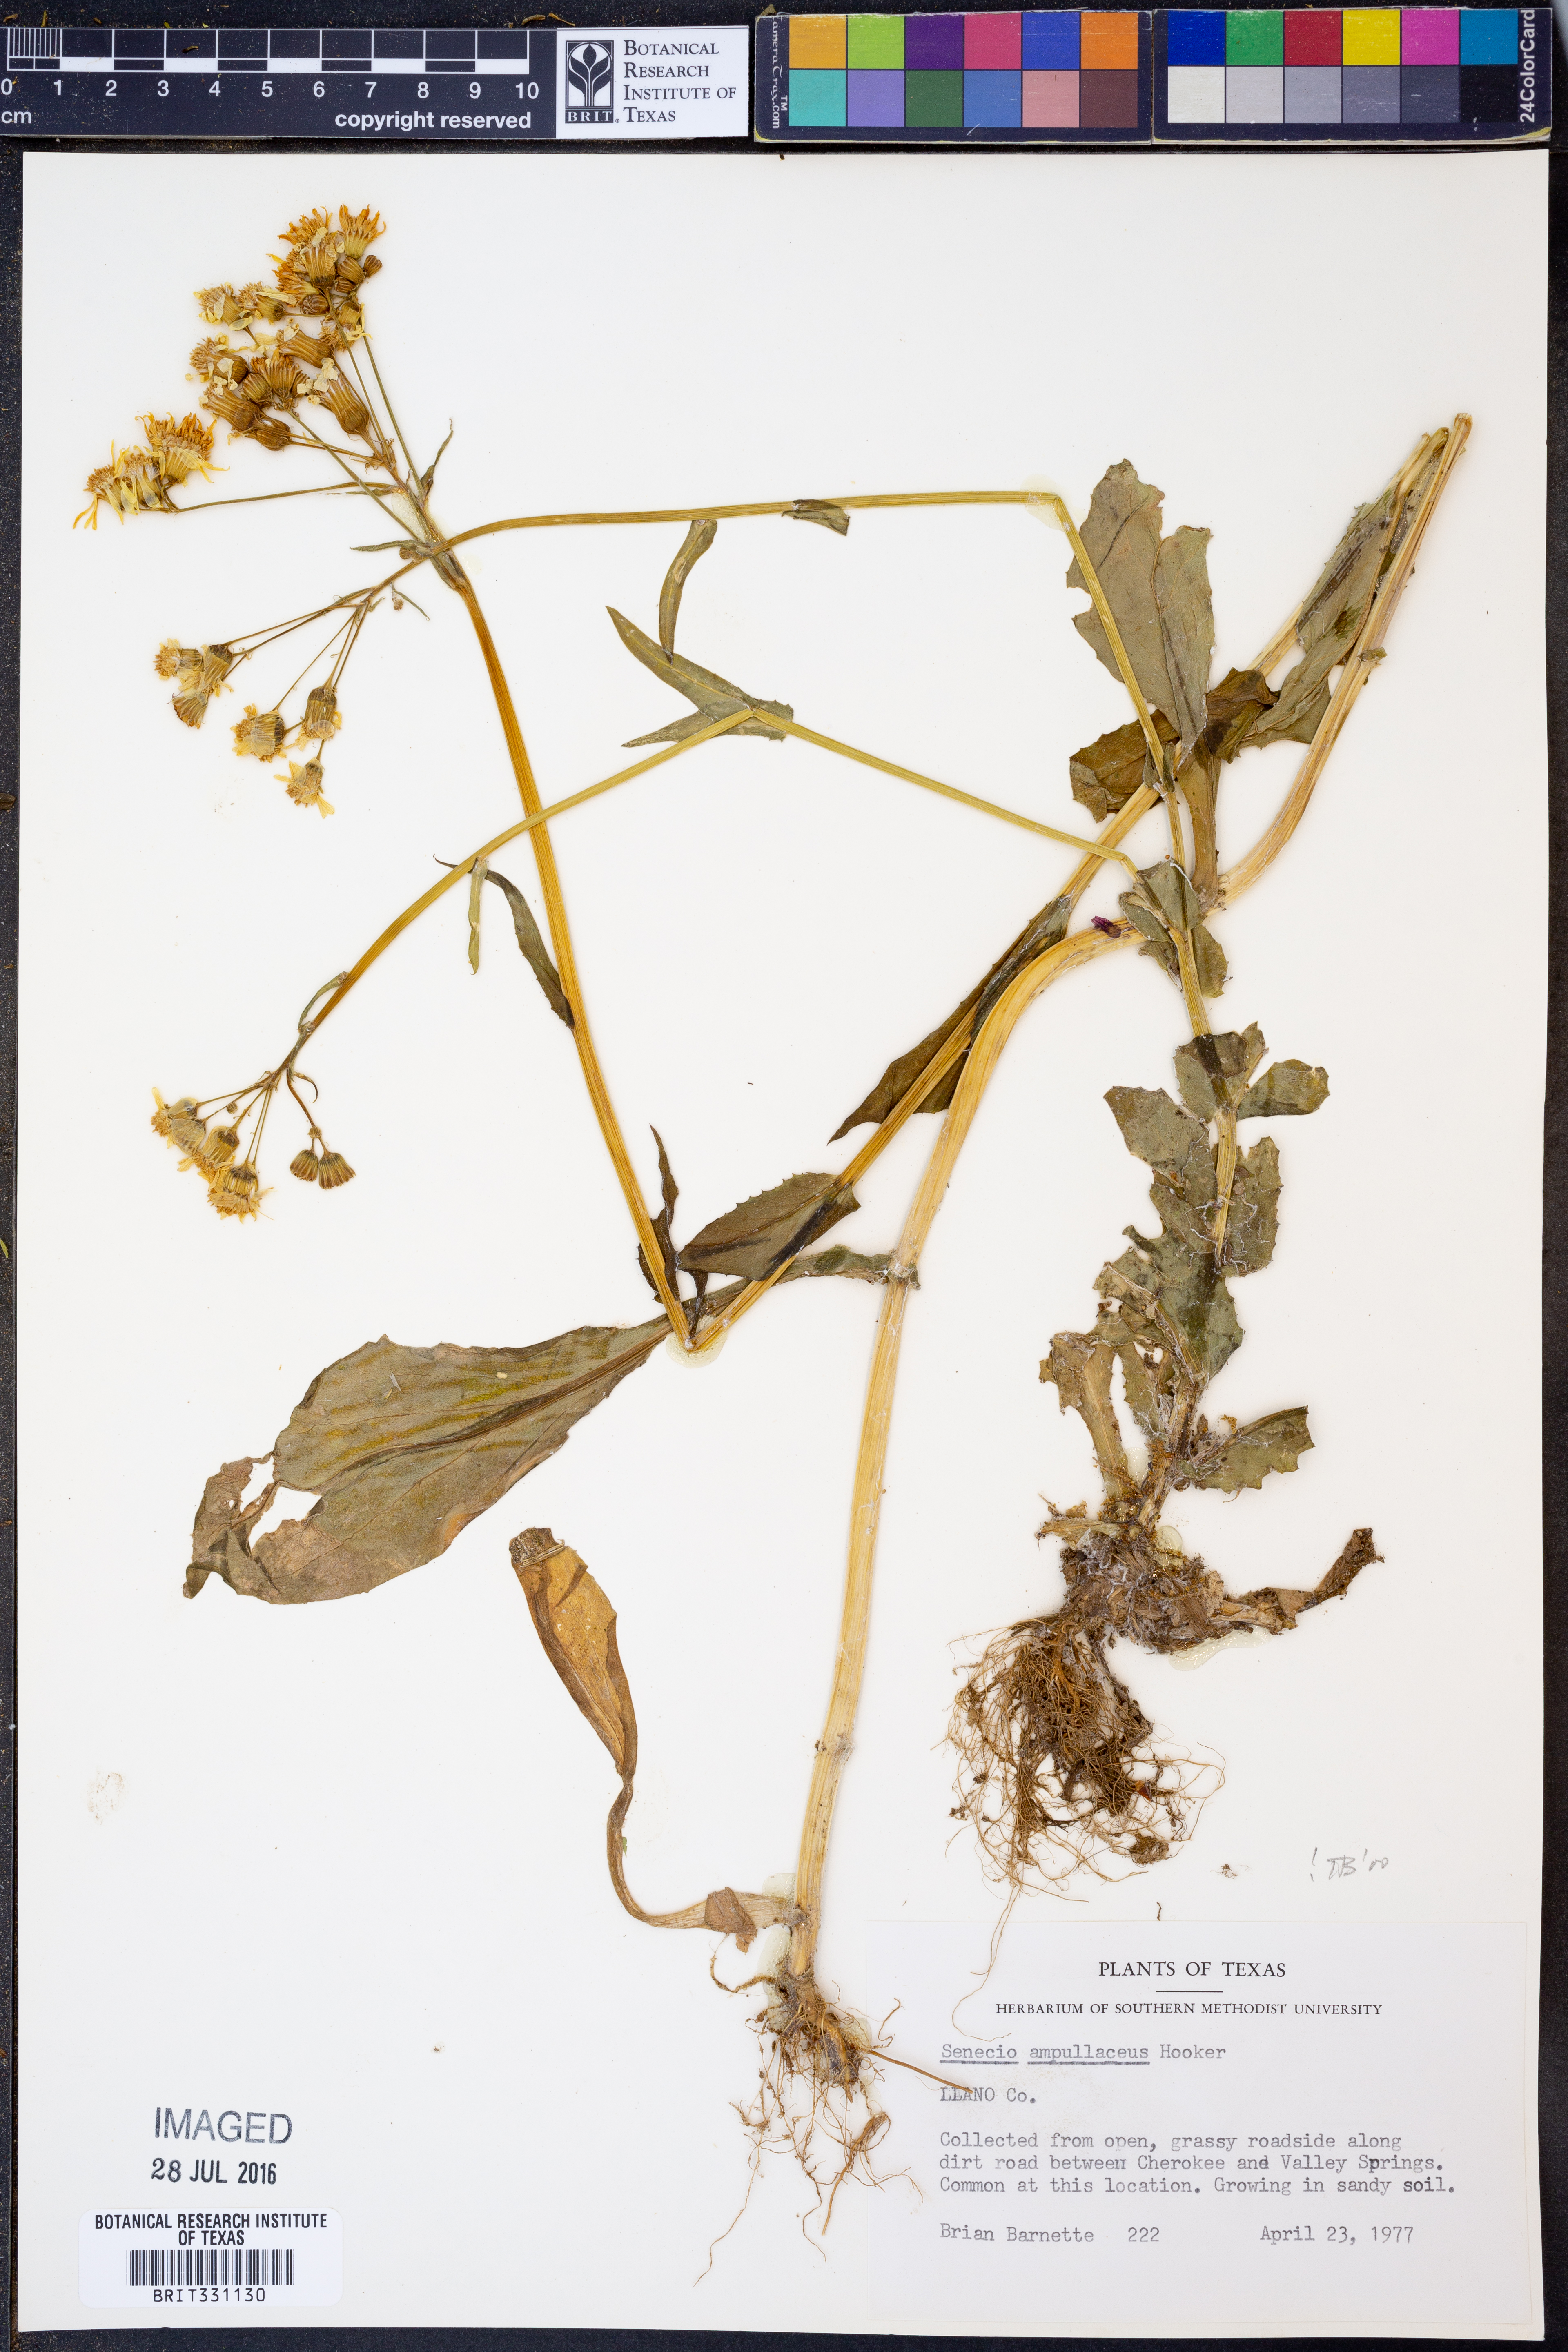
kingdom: Plantae
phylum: Tracheophyta
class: Magnoliopsida
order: Asterales
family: Asteraceae
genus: Senecio
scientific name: Senecio ampullaceus
